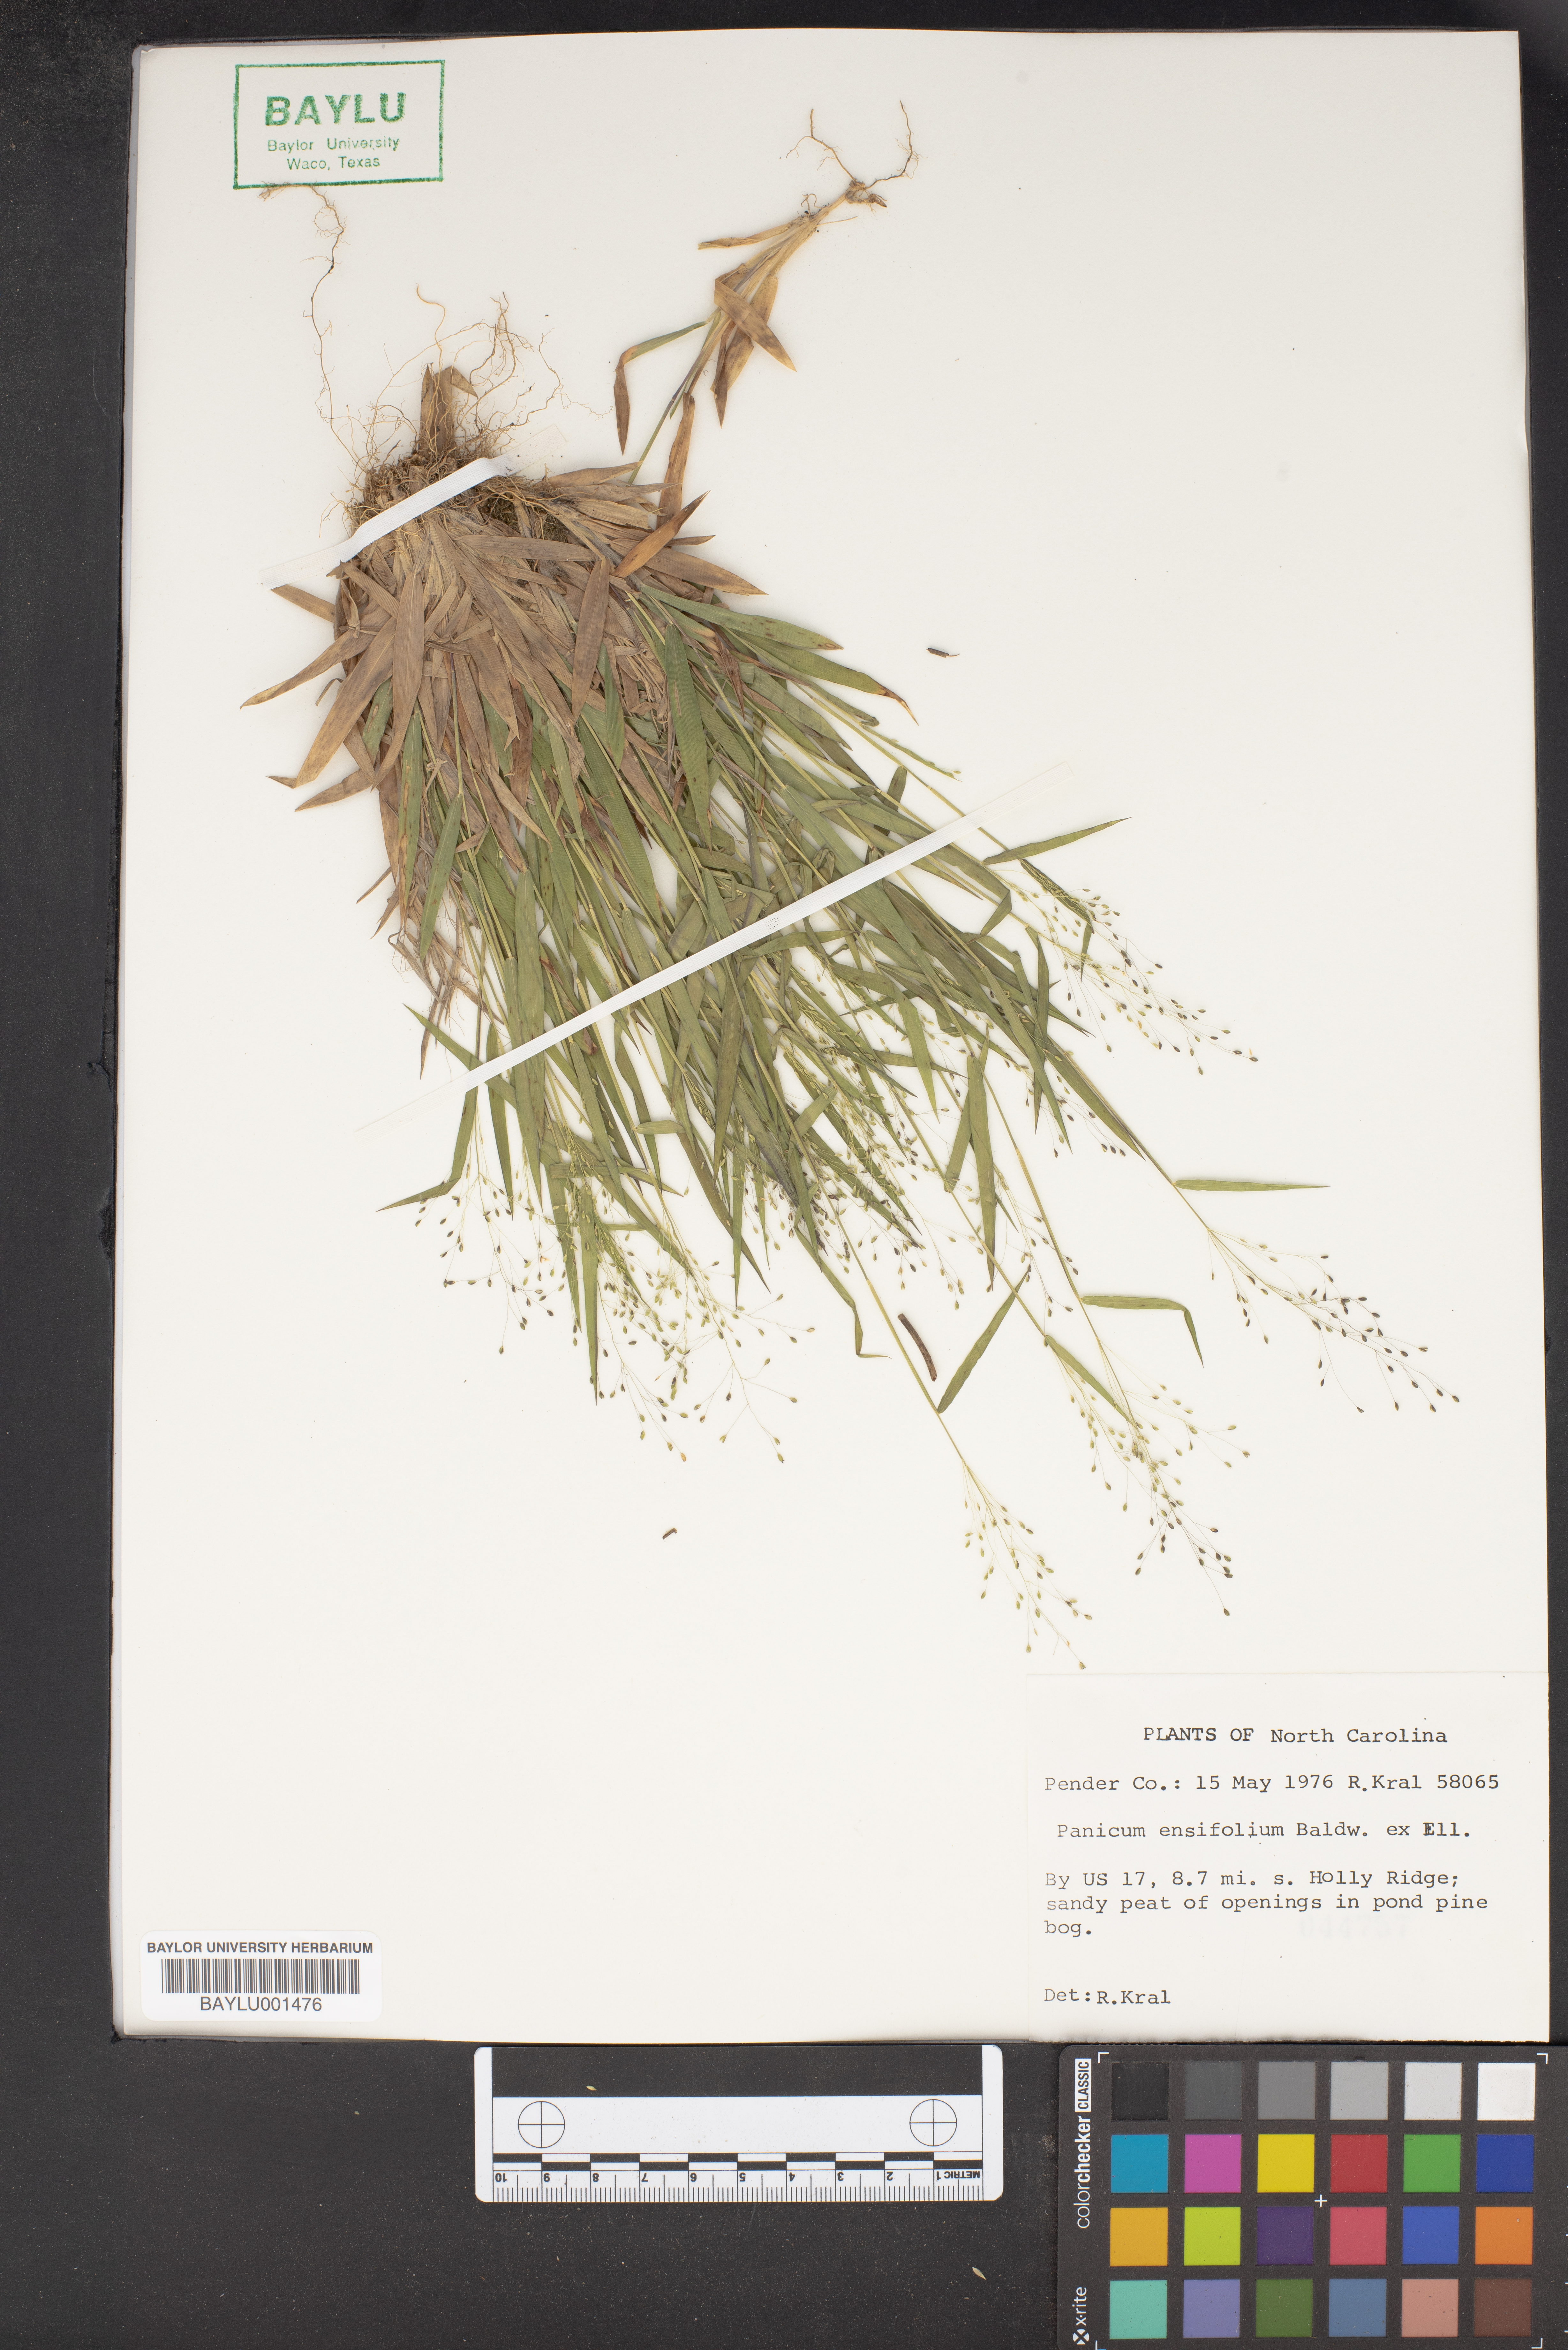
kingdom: Plantae
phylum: Tracheophyta
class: Liliopsida
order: Poales
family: Poaceae
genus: Dichanthelium
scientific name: Dichanthelium ensifolium
